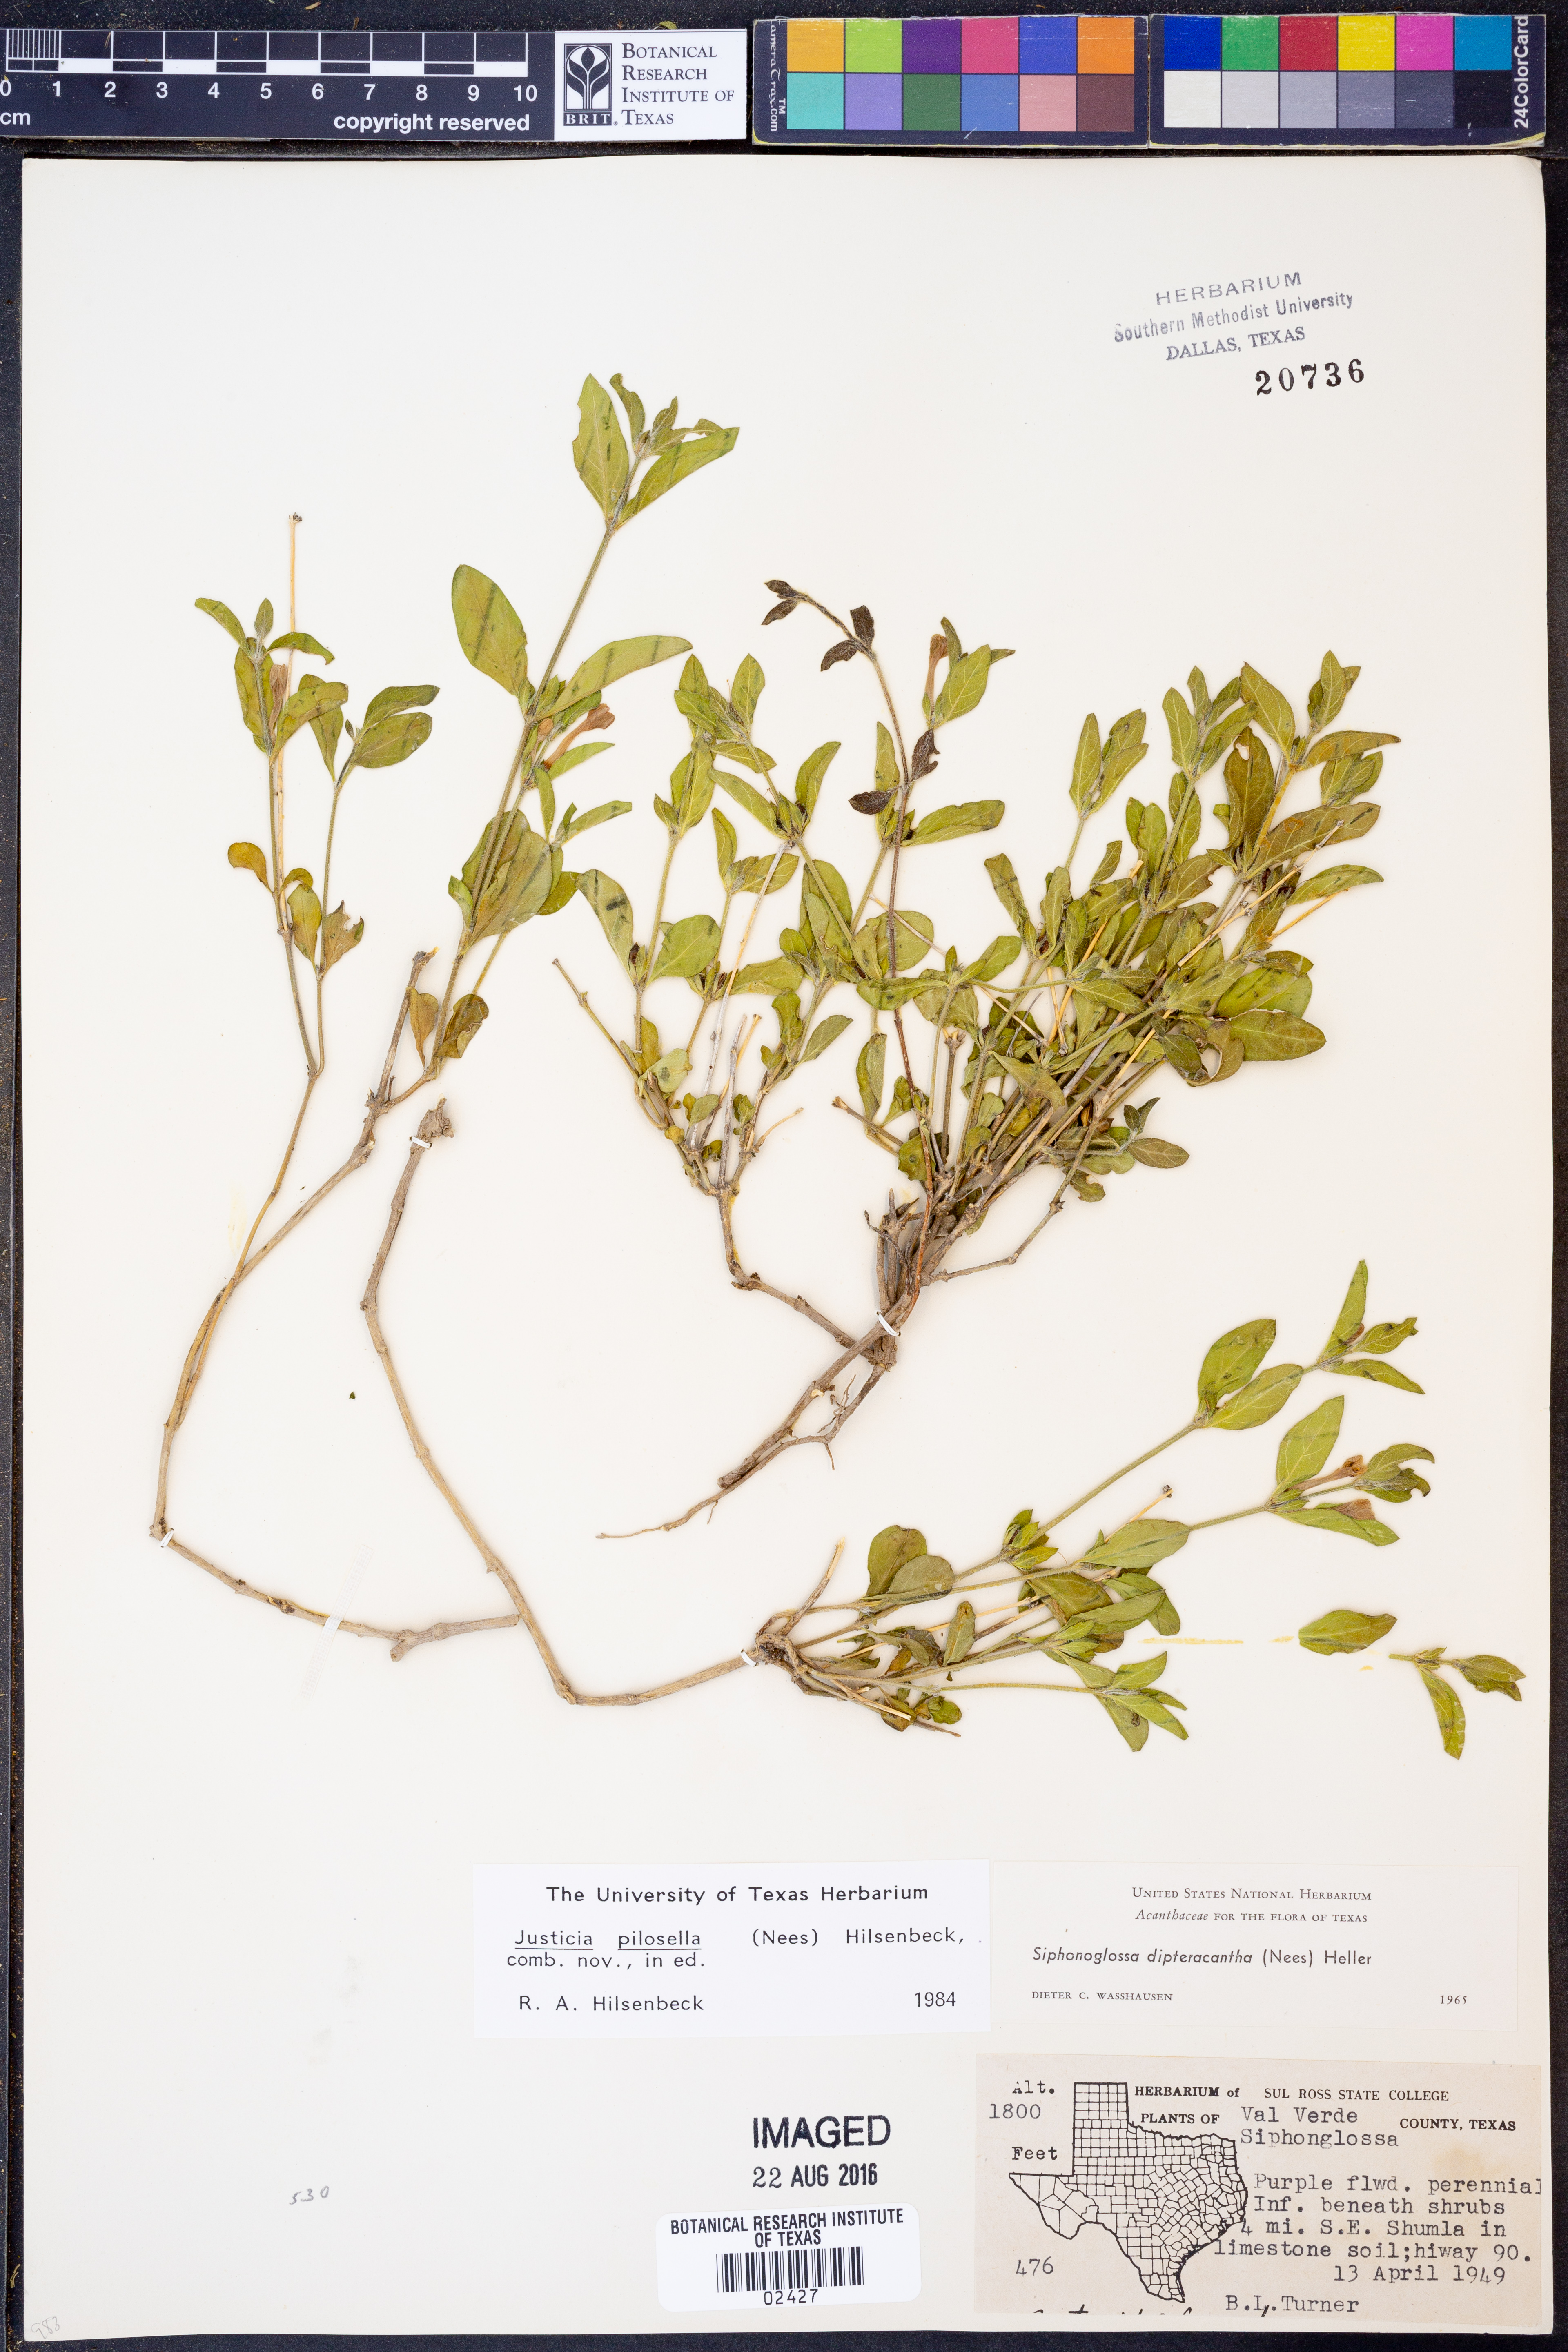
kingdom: Plantae
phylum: Tracheophyta
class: Magnoliopsida
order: Lamiales
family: Acanthaceae
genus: Justicia
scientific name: Justicia pilosella
